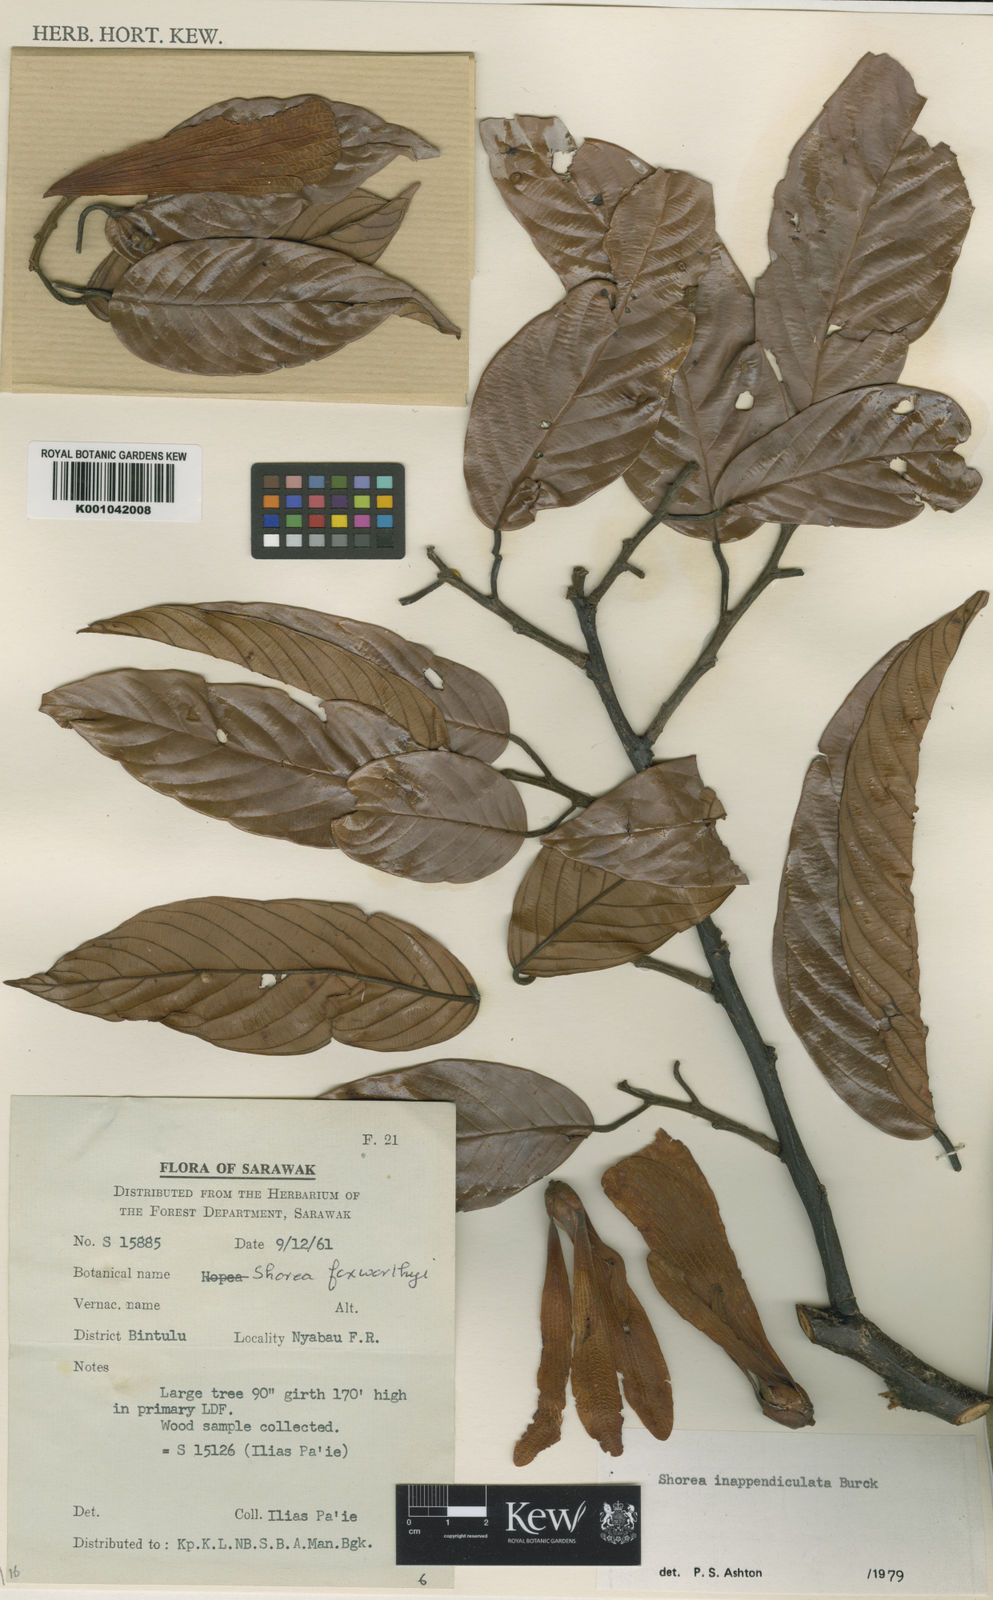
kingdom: Plantae
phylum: Tracheophyta
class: Magnoliopsida
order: Malvales
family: Dipterocarpaceae
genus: Shorea
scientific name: Shorea inappendiculata
